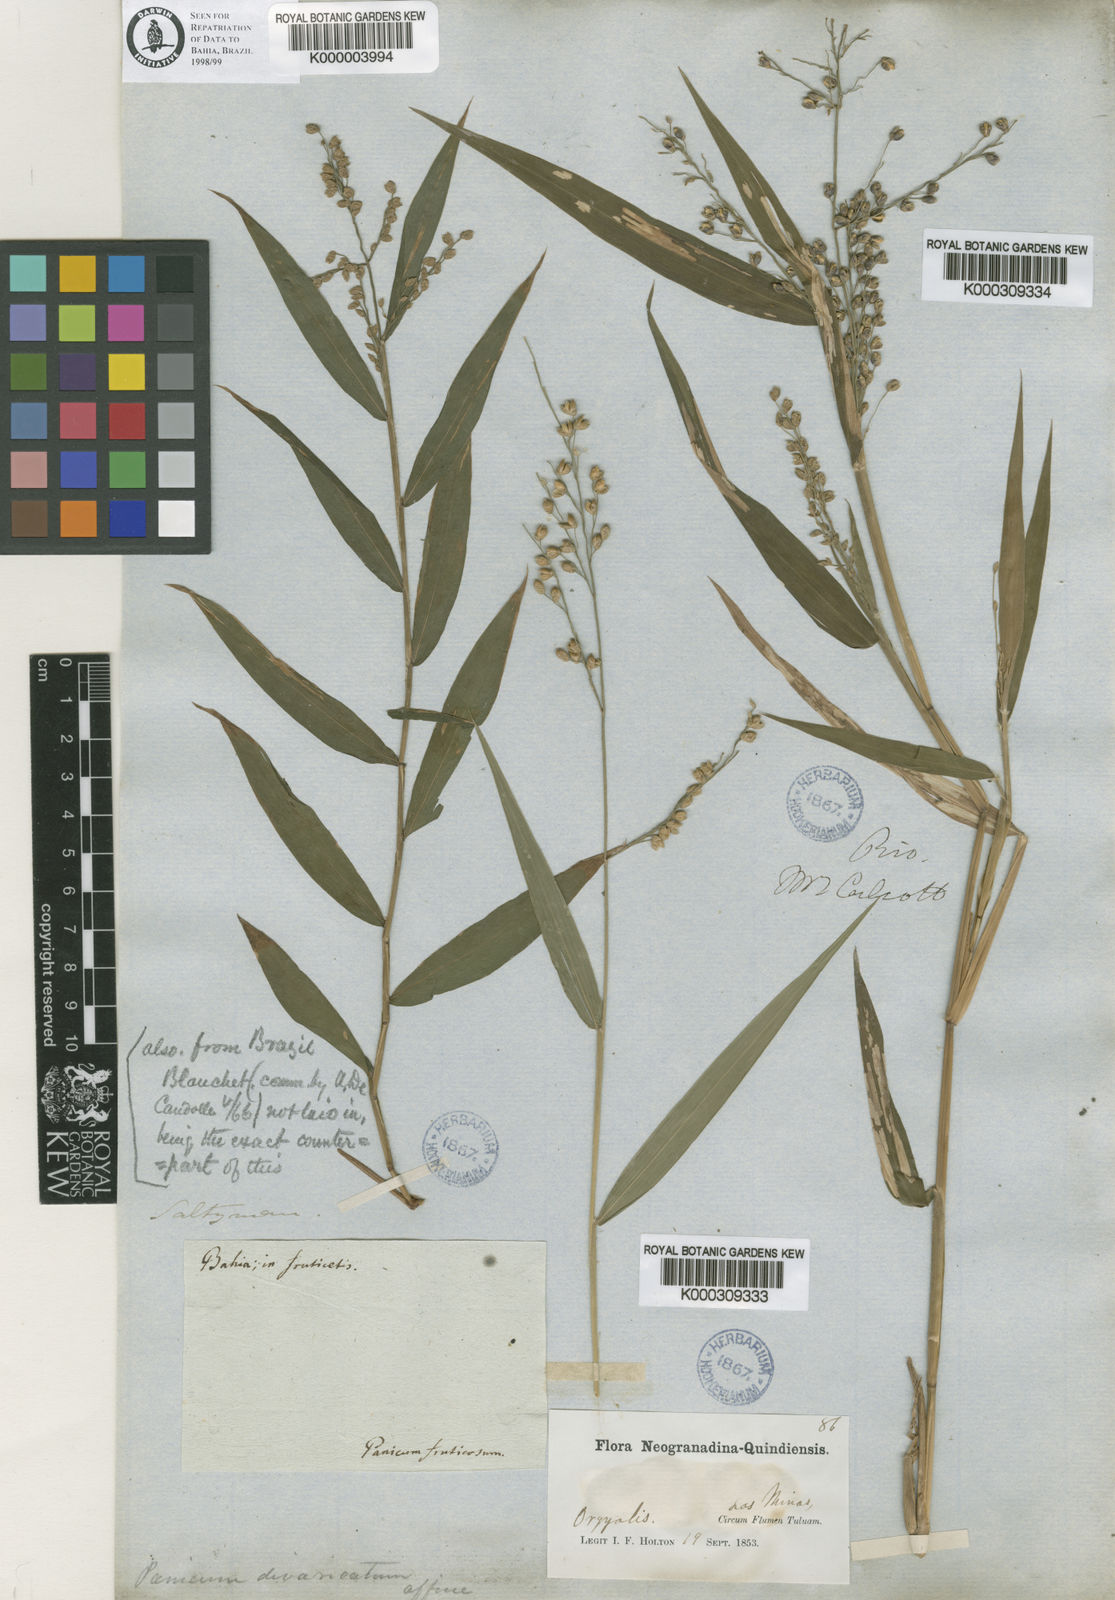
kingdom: Plantae
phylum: Tracheophyta
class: Liliopsida
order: Poales
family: Poaceae
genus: Lasiacis
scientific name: Lasiacis ligulata
